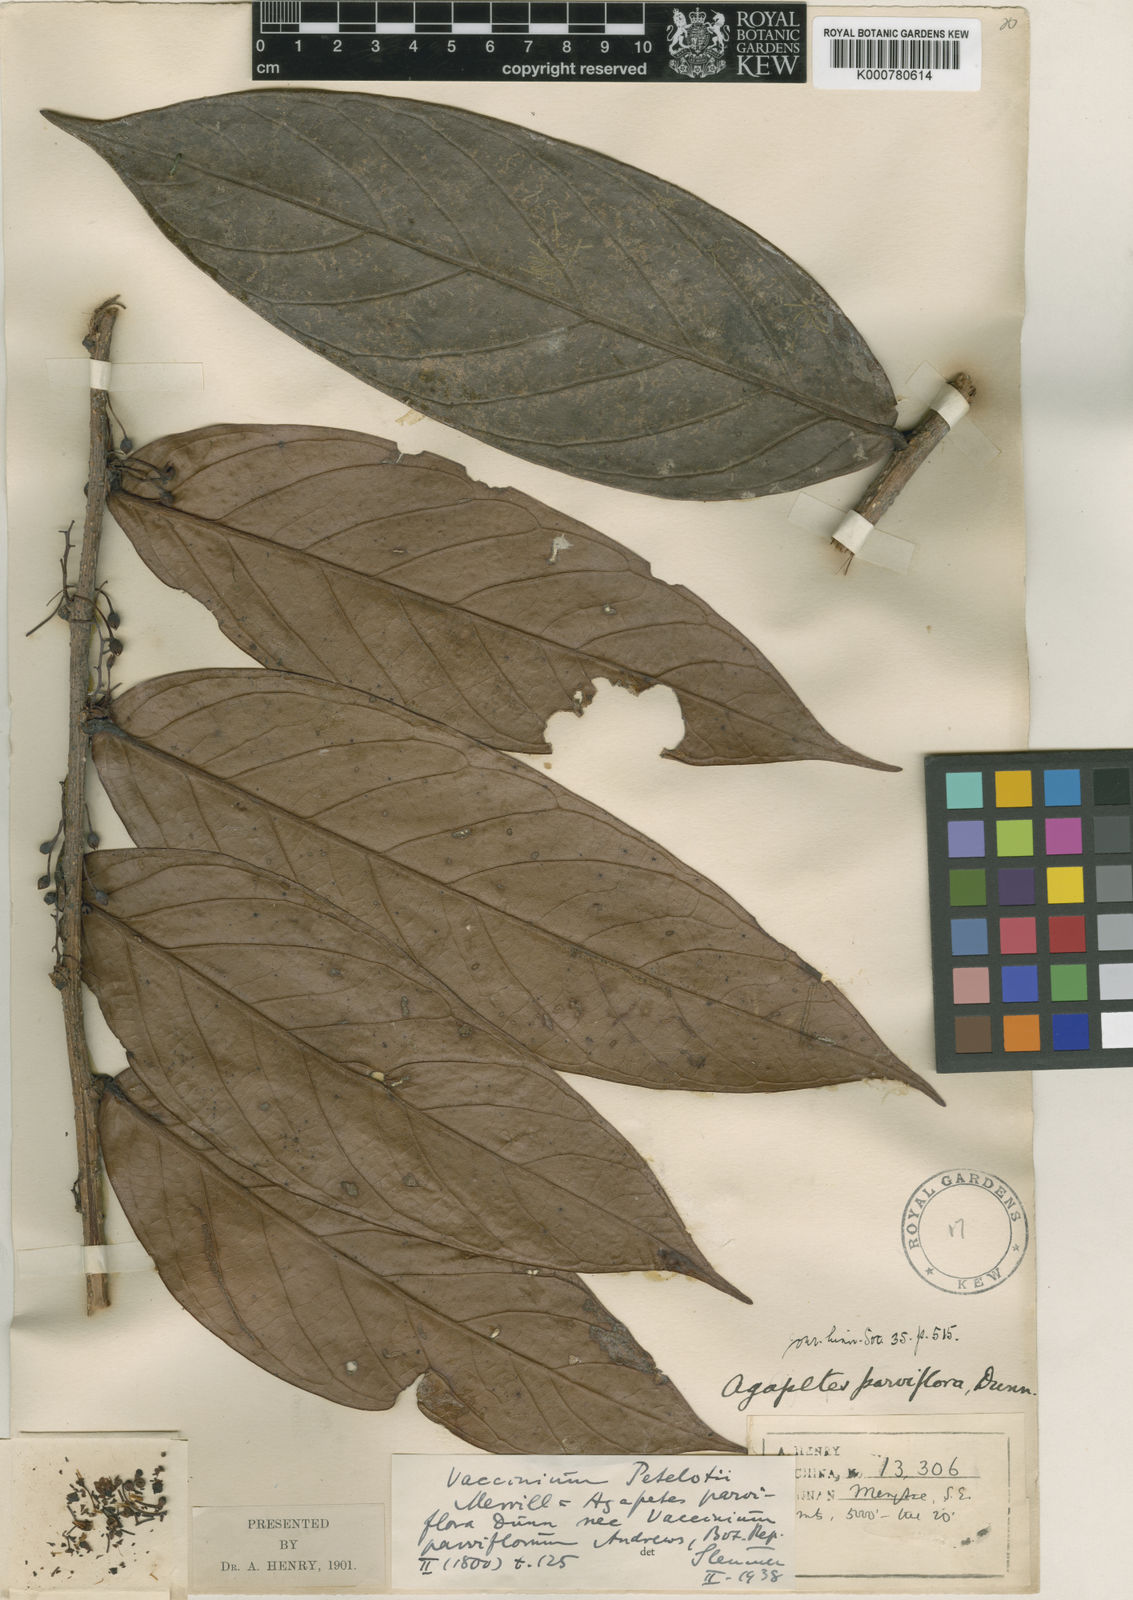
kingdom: Plantae
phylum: Tracheophyta
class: Magnoliopsida
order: Ericales
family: Ericaceae
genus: Vaccinium
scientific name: Vaccinium petelotii
